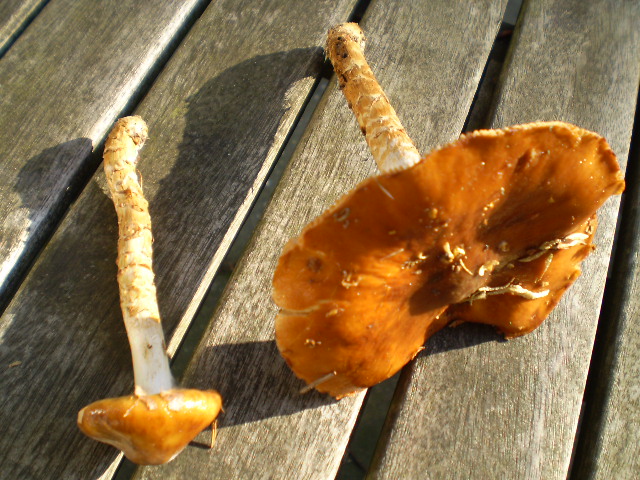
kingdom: Fungi
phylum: Basidiomycota
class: Agaricomycetes
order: Agaricales
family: Cortinariaceae
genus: Cortinarius
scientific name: Cortinarius collinitoides
